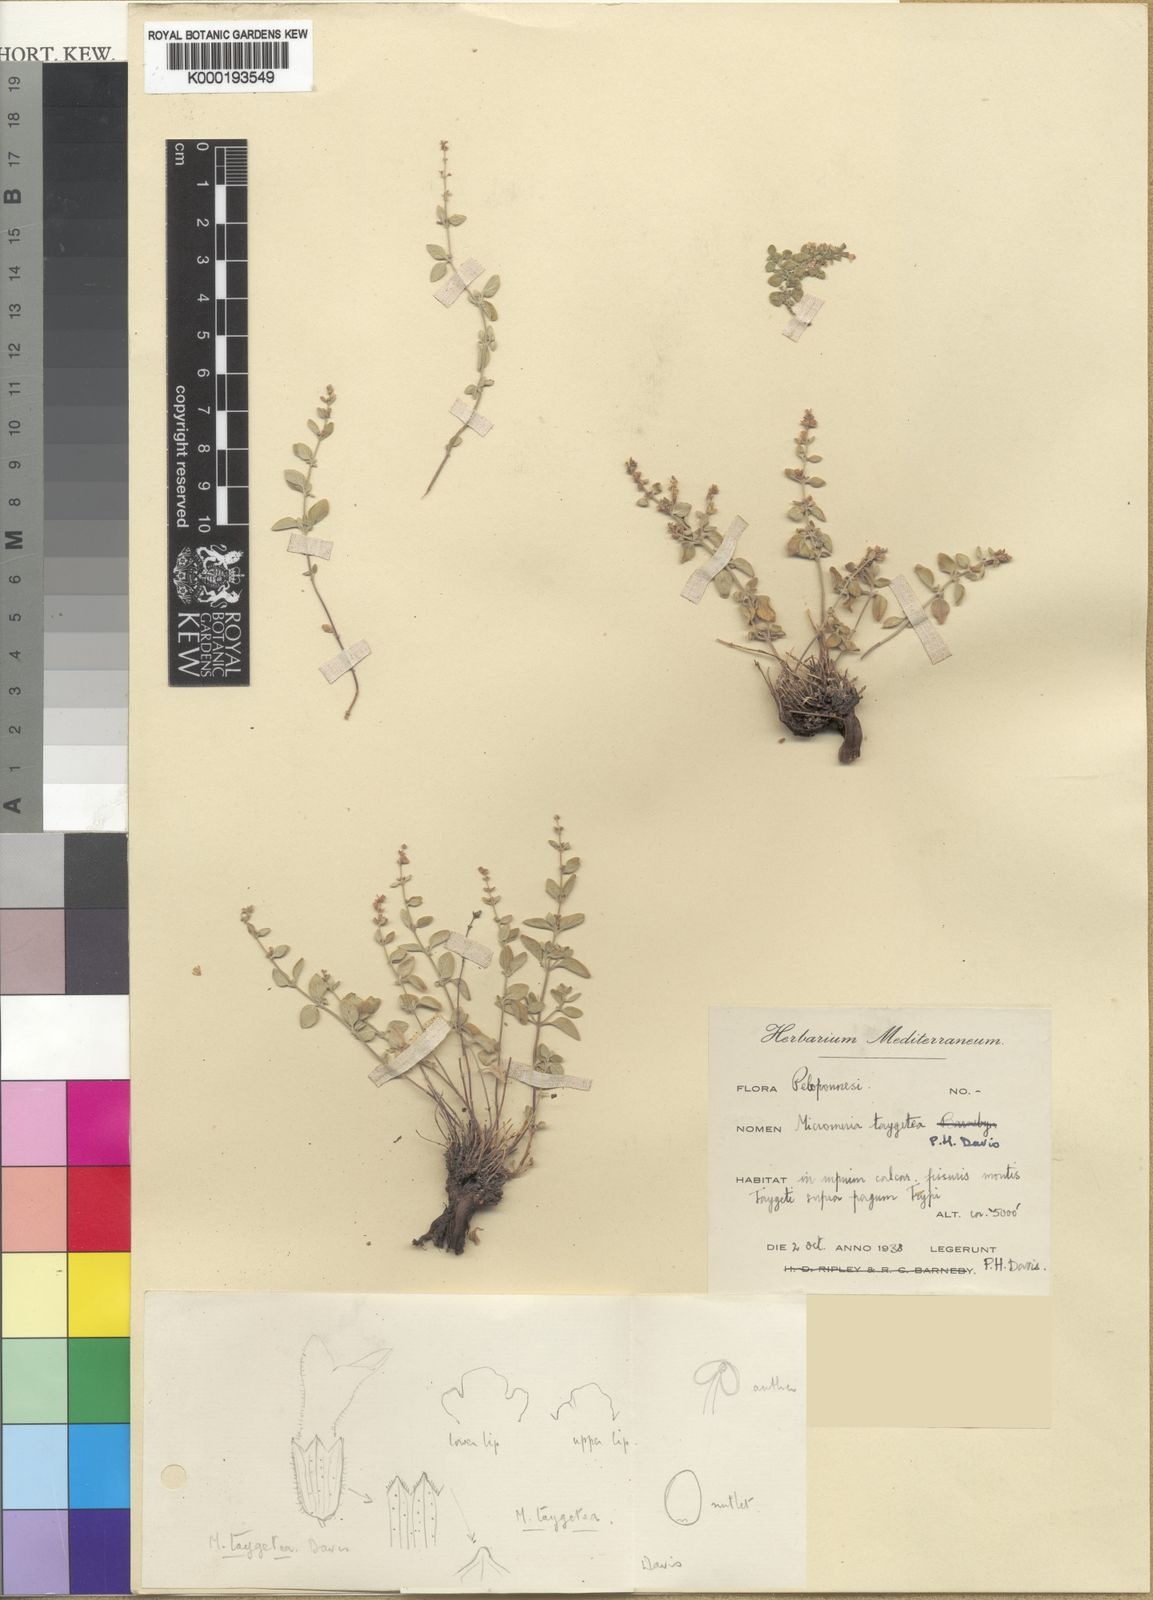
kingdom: Plantae
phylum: Tracheophyta
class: Magnoliopsida
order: Lamiales
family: Lamiaceae
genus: Clinopodium
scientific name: Clinopodium taygeteum
